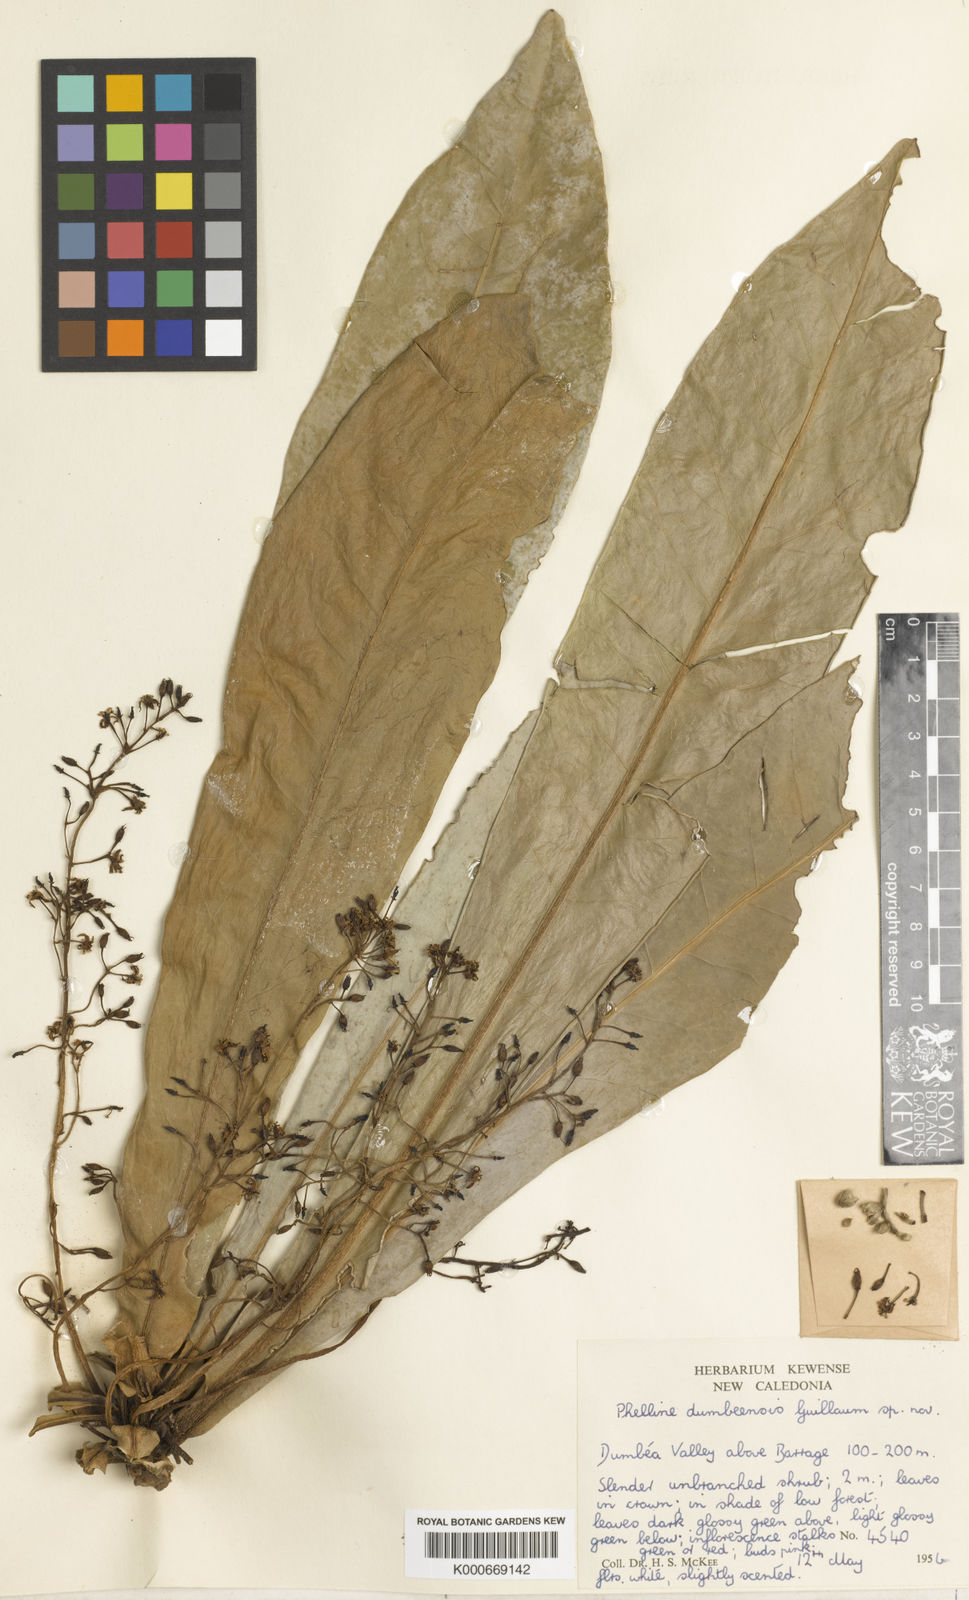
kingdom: Plantae
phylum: Tracheophyta
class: Magnoliopsida
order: Asterales
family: Phellinaceae
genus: Phelline
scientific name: Phelline dumbeensis
